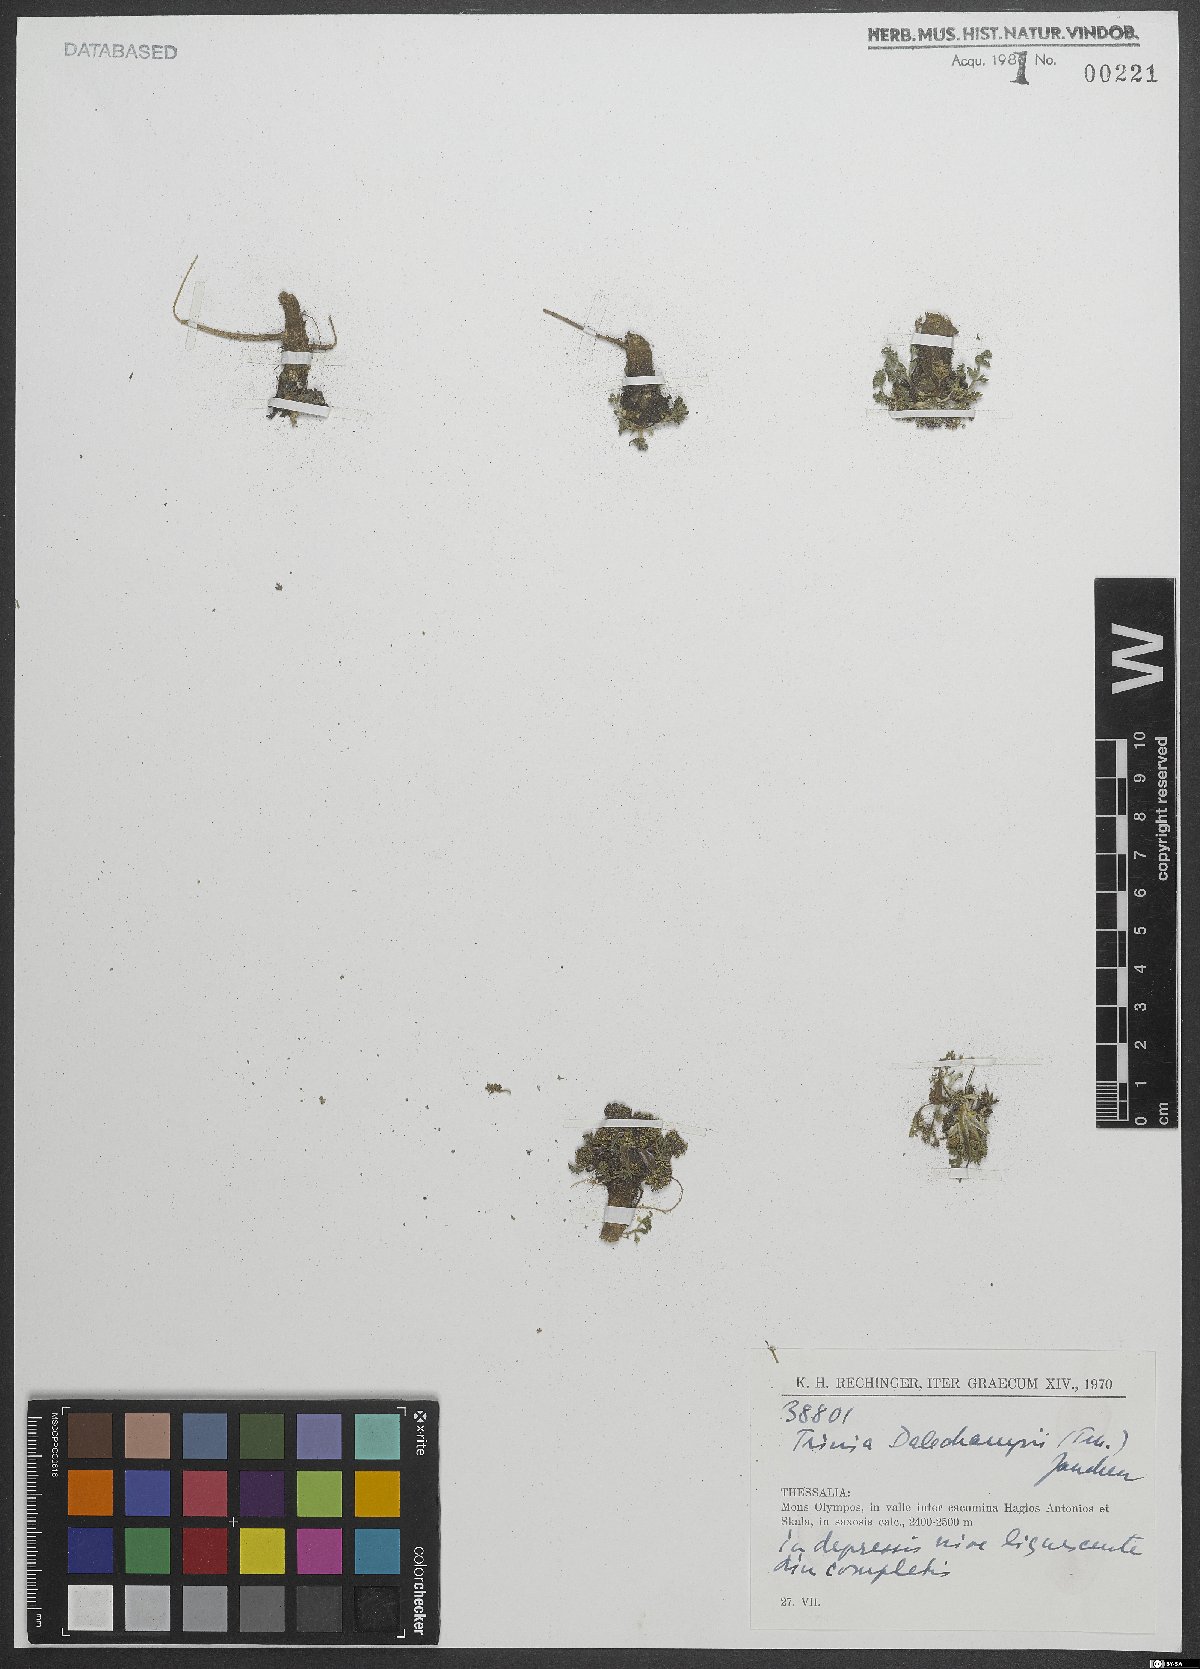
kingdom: Plantae
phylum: Tracheophyta
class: Magnoliopsida
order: Apiales
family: Apiaceae
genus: Trinia
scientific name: Trinia dalechampii
